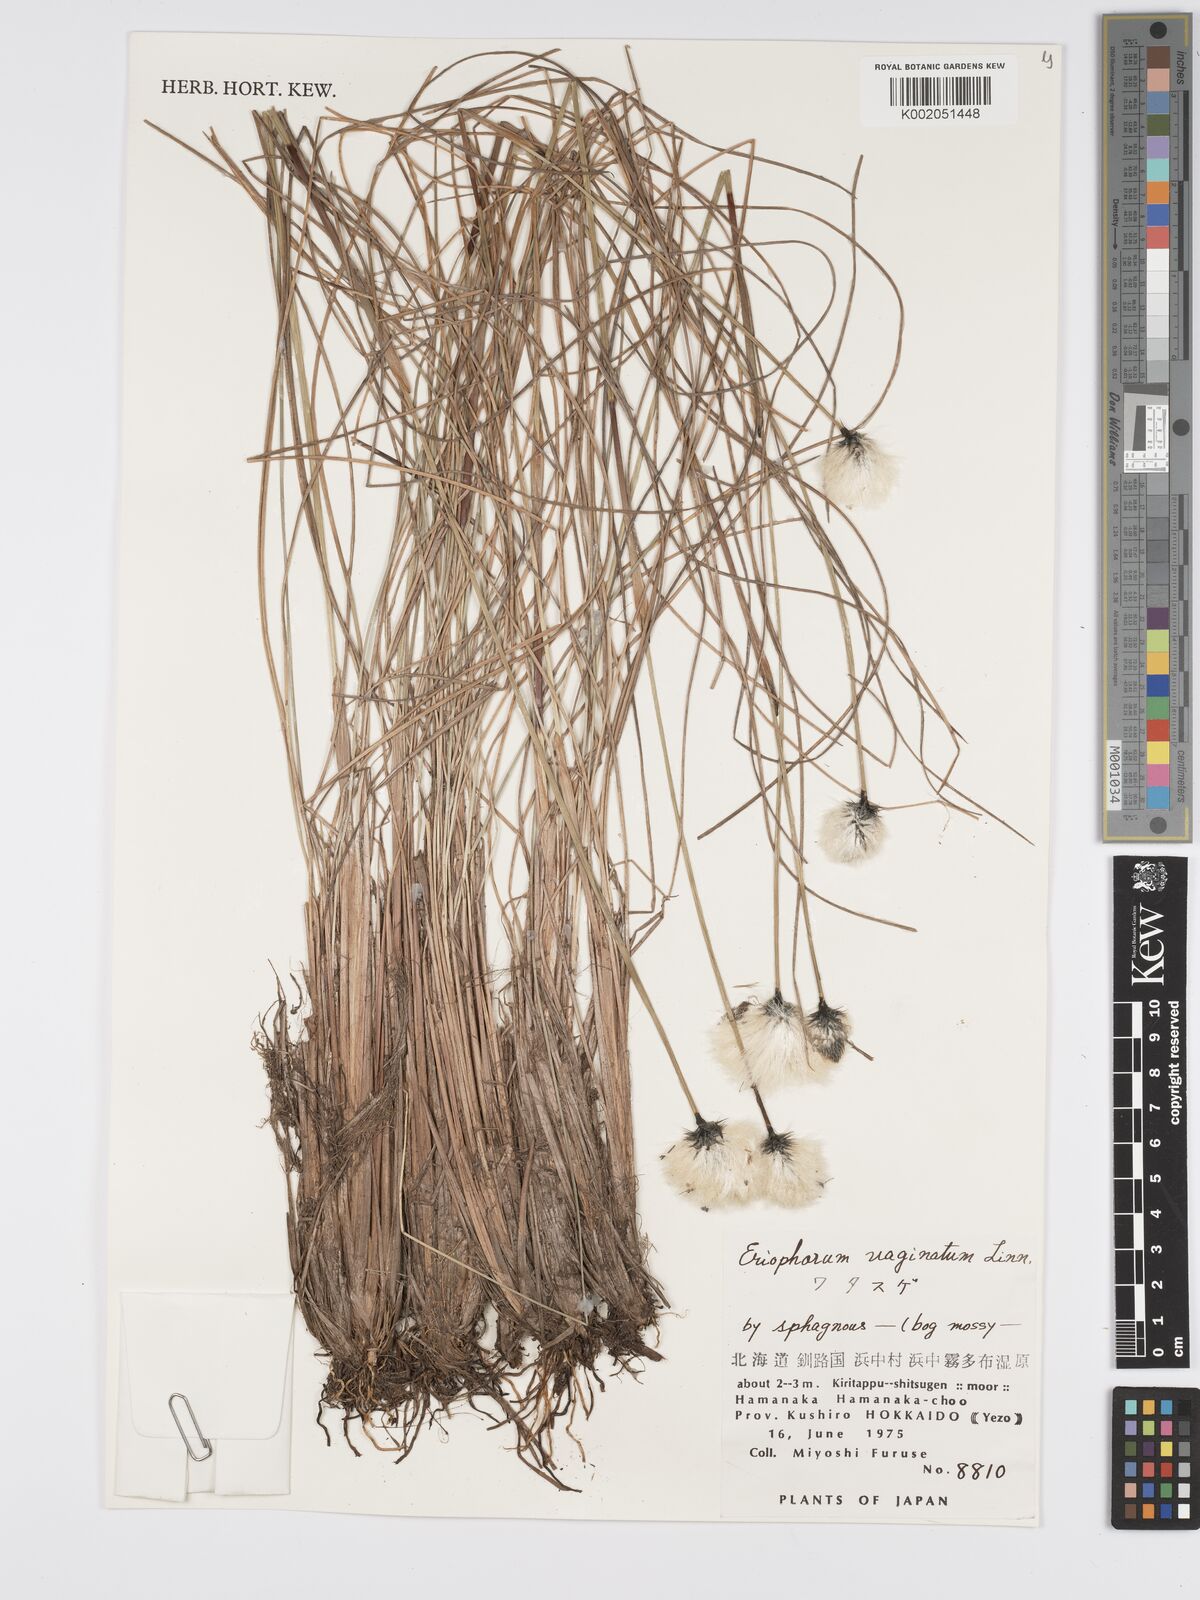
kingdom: Plantae
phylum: Tracheophyta
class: Liliopsida
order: Poales
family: Cyperaceae
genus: Eriophorum
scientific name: Eriophorum vaginatum
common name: Hare's-tail cottongrass
